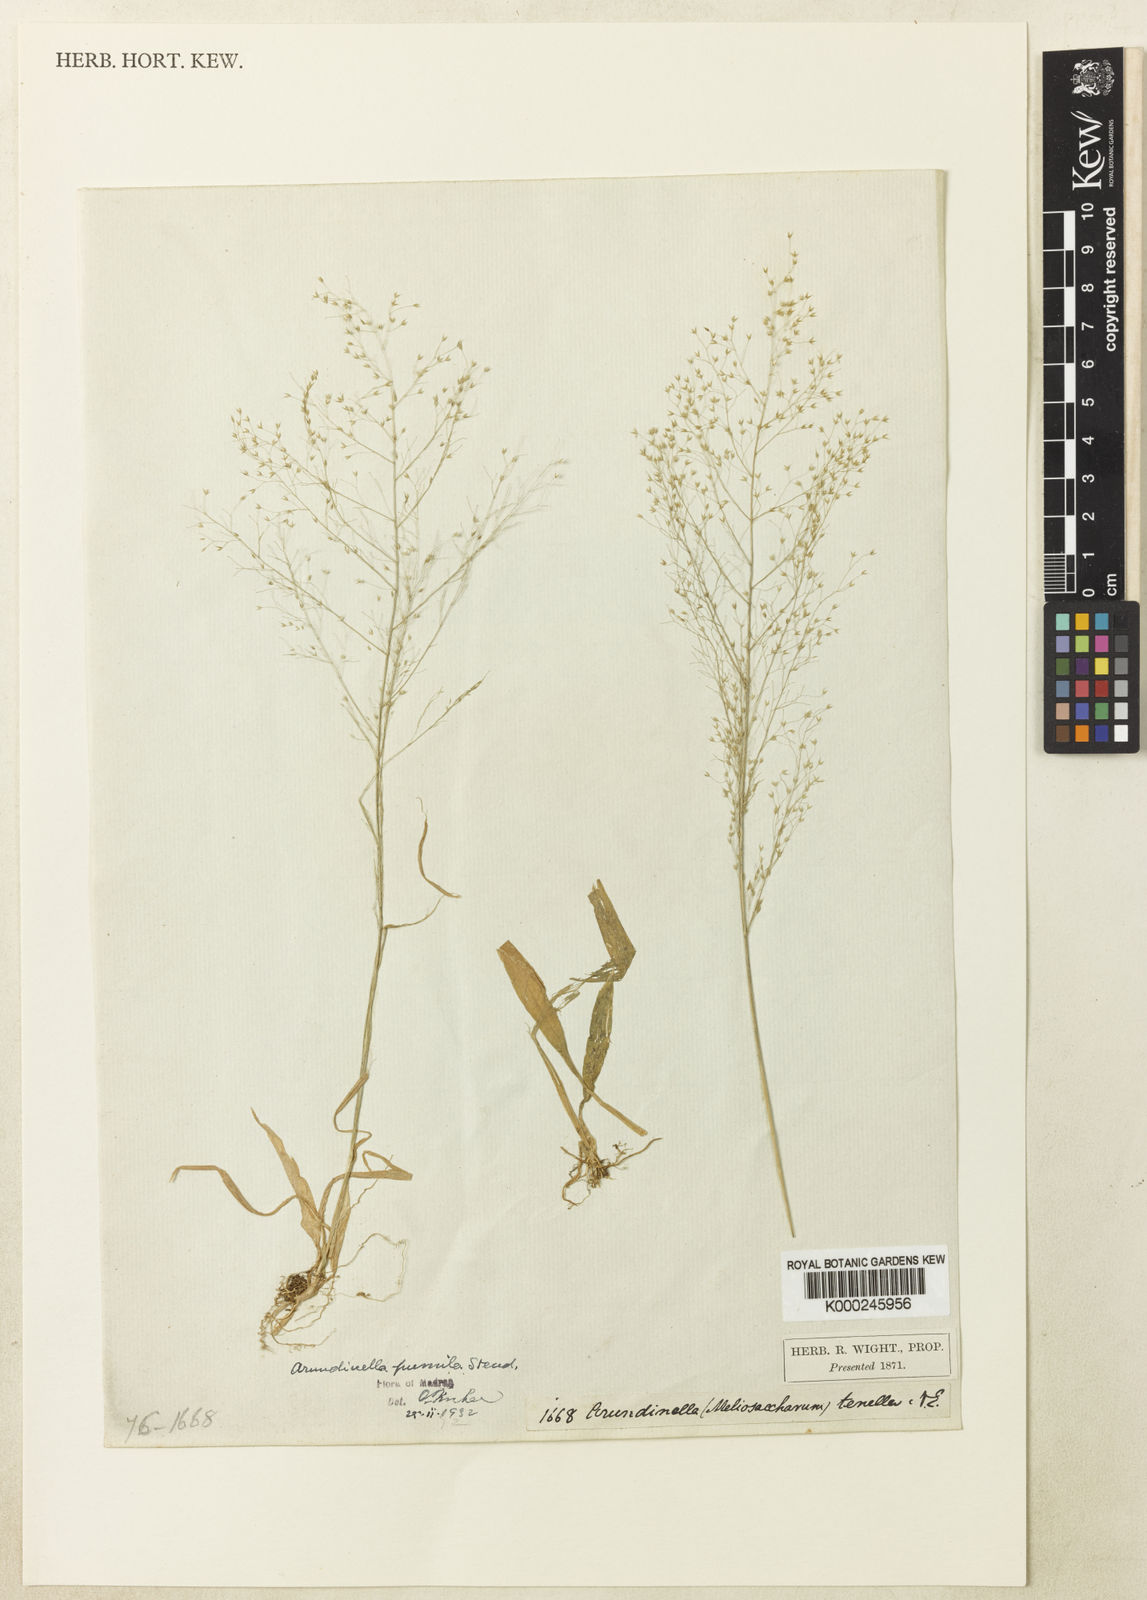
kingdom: Plantae
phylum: Tracheophyta
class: Liliopsida
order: Poales
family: Poaceae
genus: Arundinella
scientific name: Arundinella pumila
